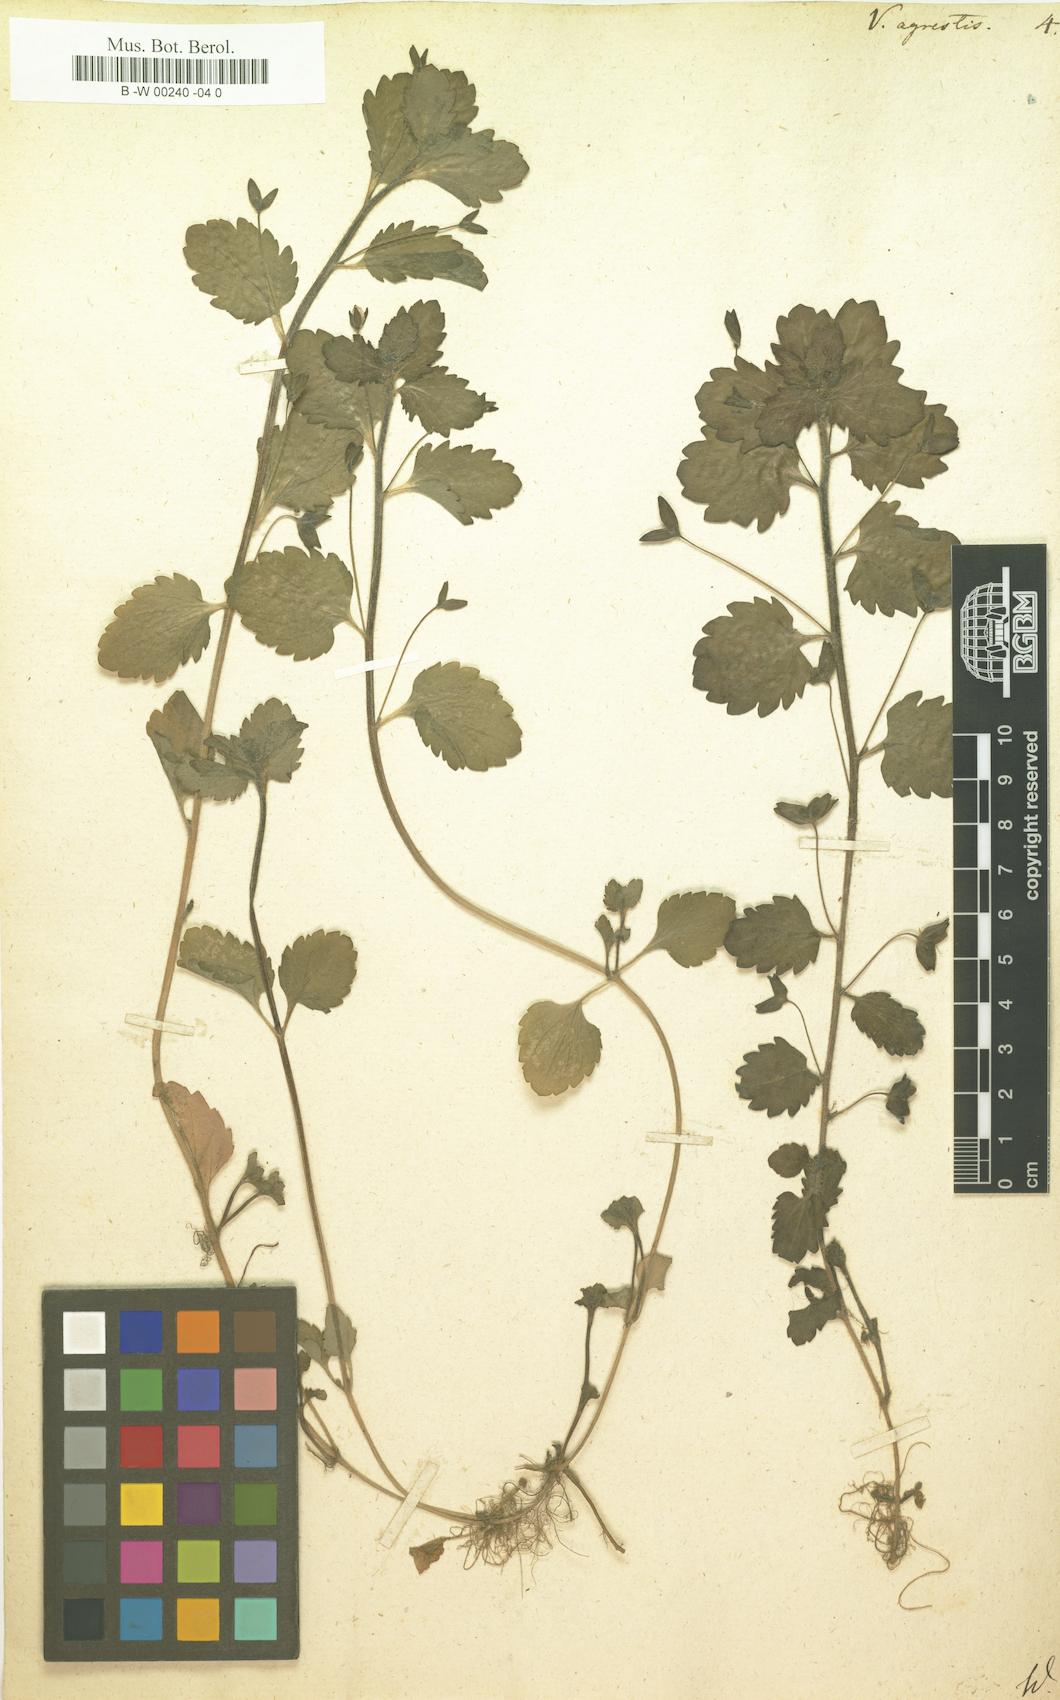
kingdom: Plantae
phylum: Tracheophyta
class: Magnoliopsida
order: Lamiales
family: Plantaginaceae
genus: Veronica
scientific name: Veronica agrestis
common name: Green field-speedwell
